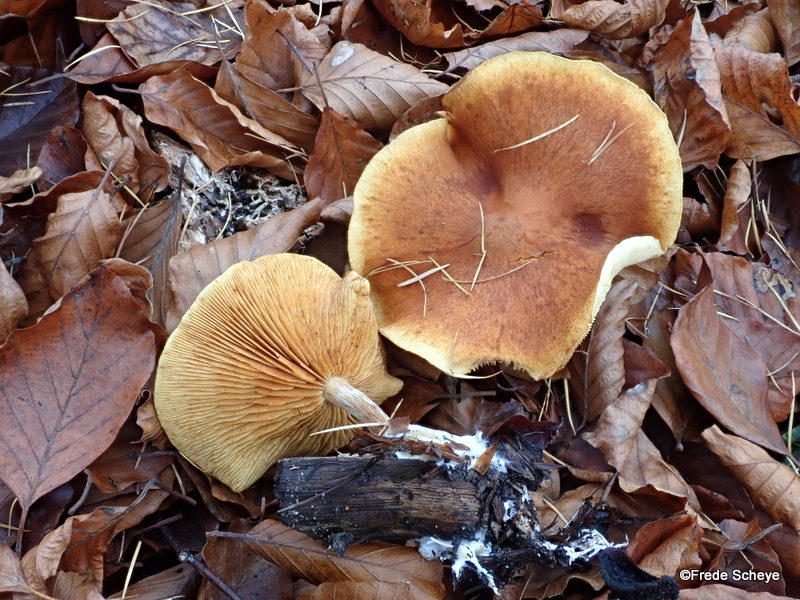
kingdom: Fungi
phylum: Basidiomycota
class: Agaricomycetes
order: Agaricales
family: Hymenogastraceae
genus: Gymnopilus
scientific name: Gymnopilus penetrans
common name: plettet flammehat
